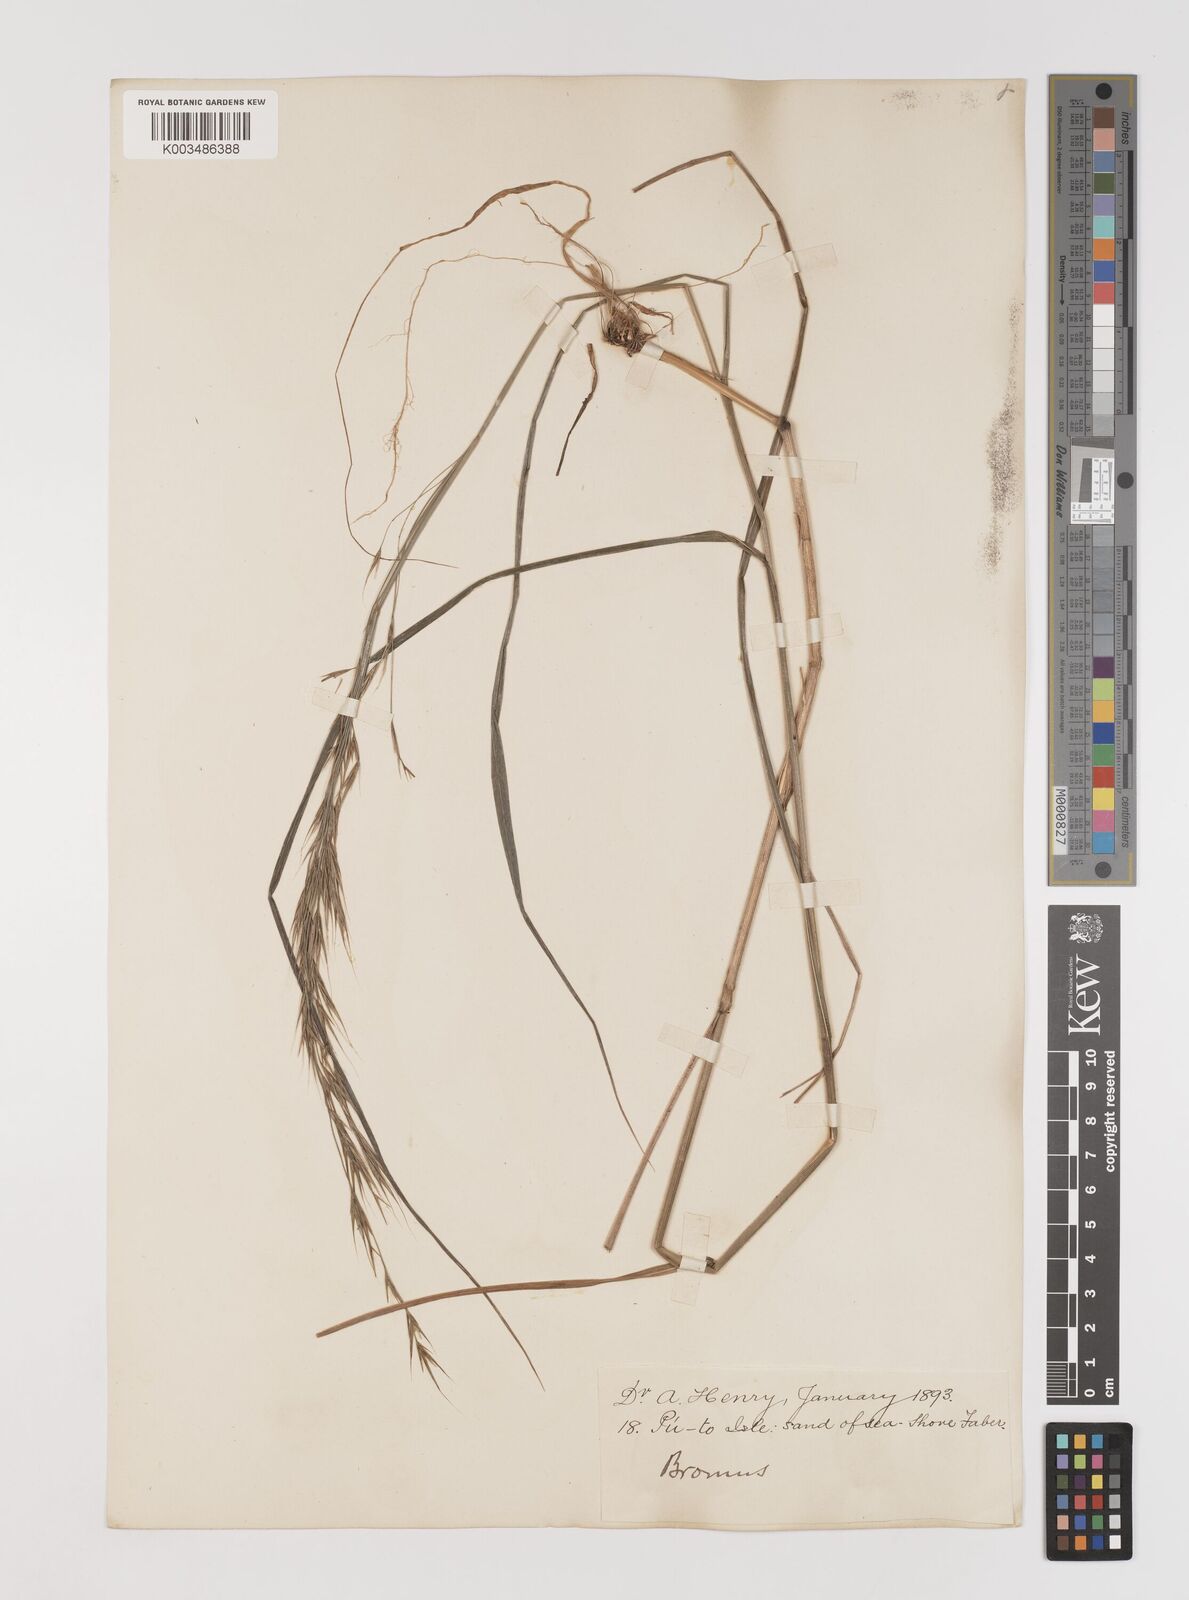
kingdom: Plantae
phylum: Tracheophyta
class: Liliopsida
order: Poales
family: Poaceae
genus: Bromus
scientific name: Bromus
